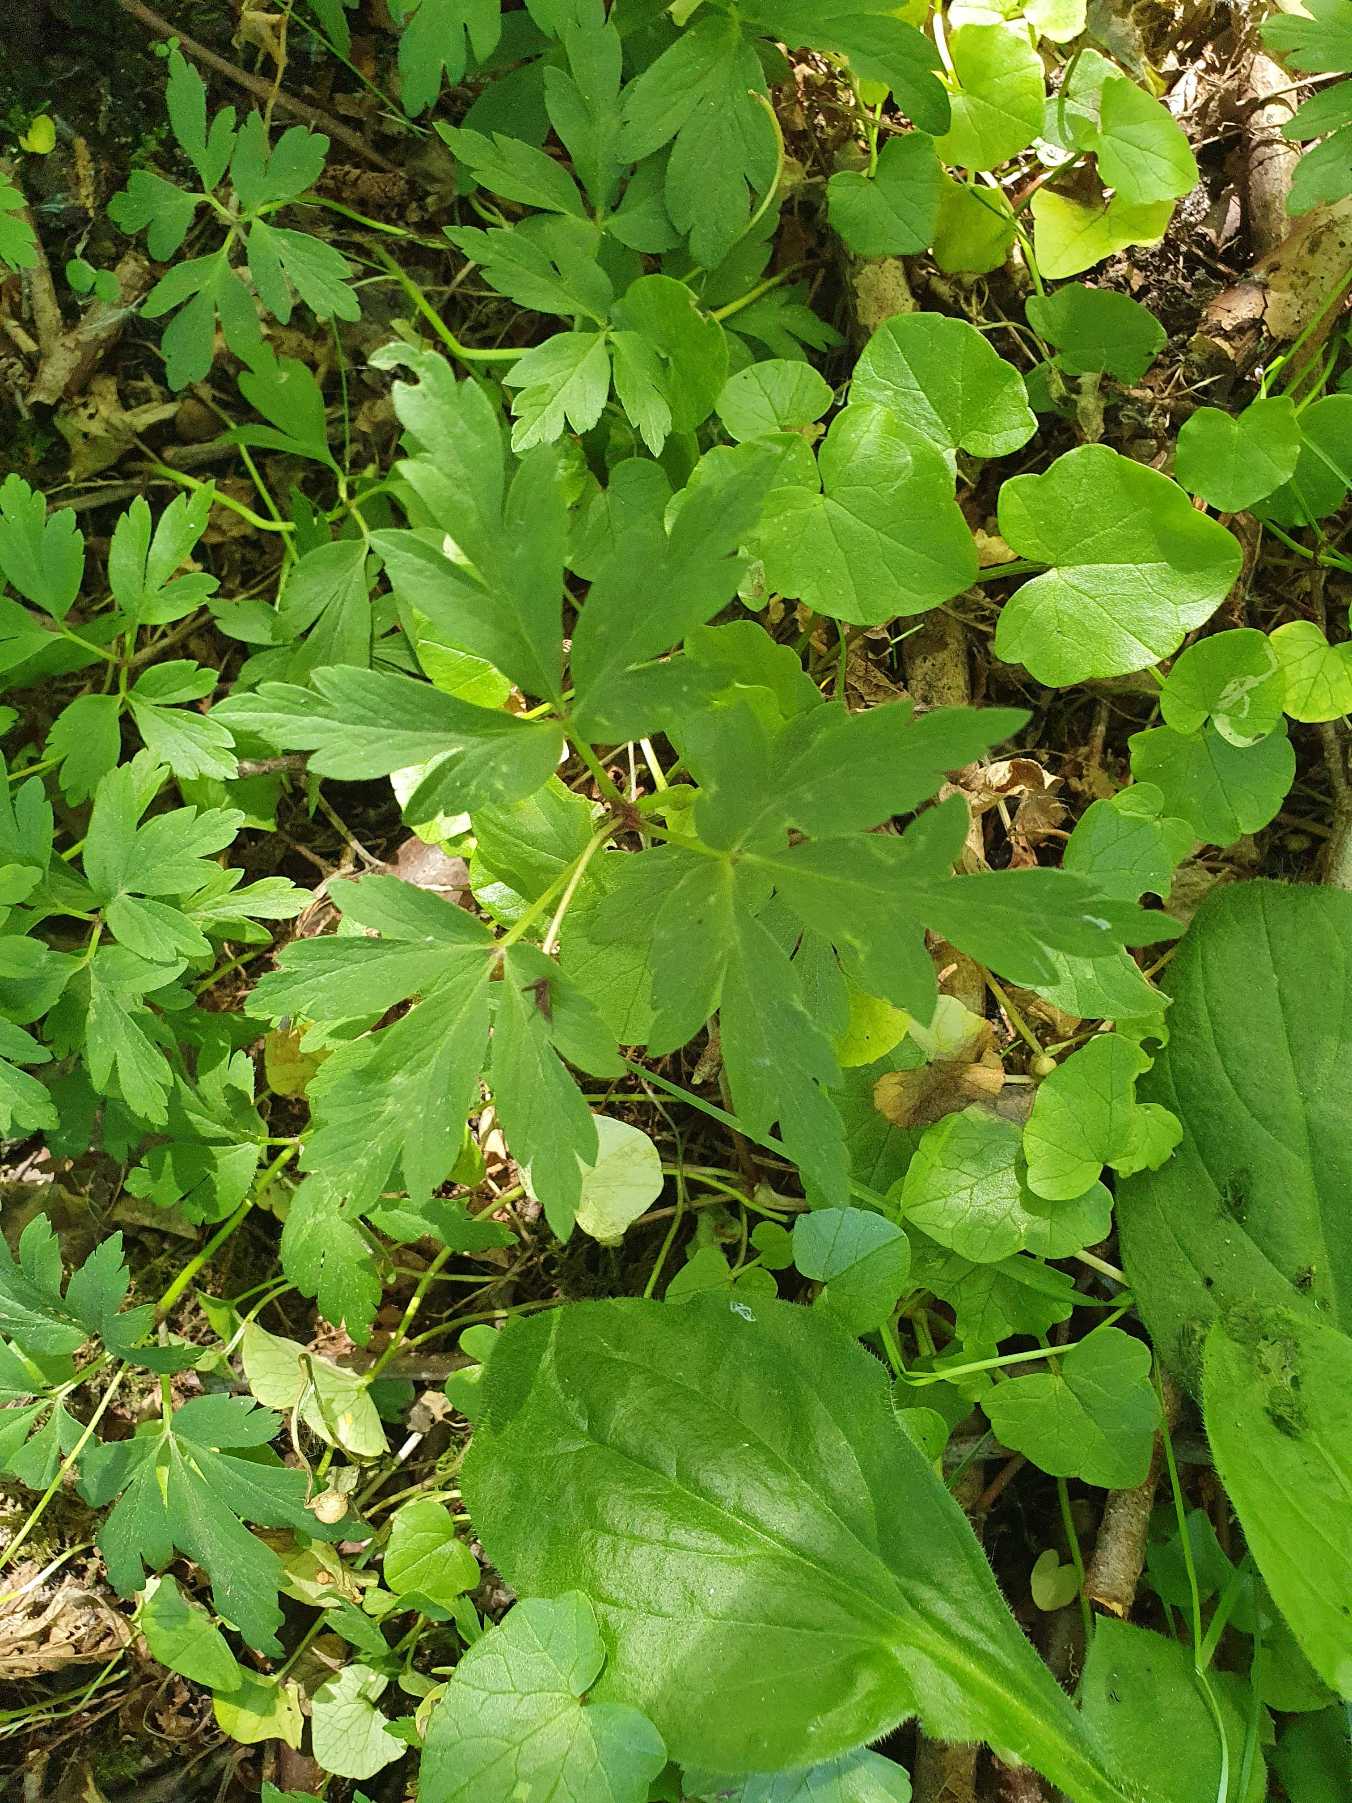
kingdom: Plantae
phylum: Tracheophyta
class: Magnoliopsida
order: Ranunculales
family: Ranunculaceae
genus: Anemone
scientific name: Anemone nemorosa
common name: Hvid anemone
